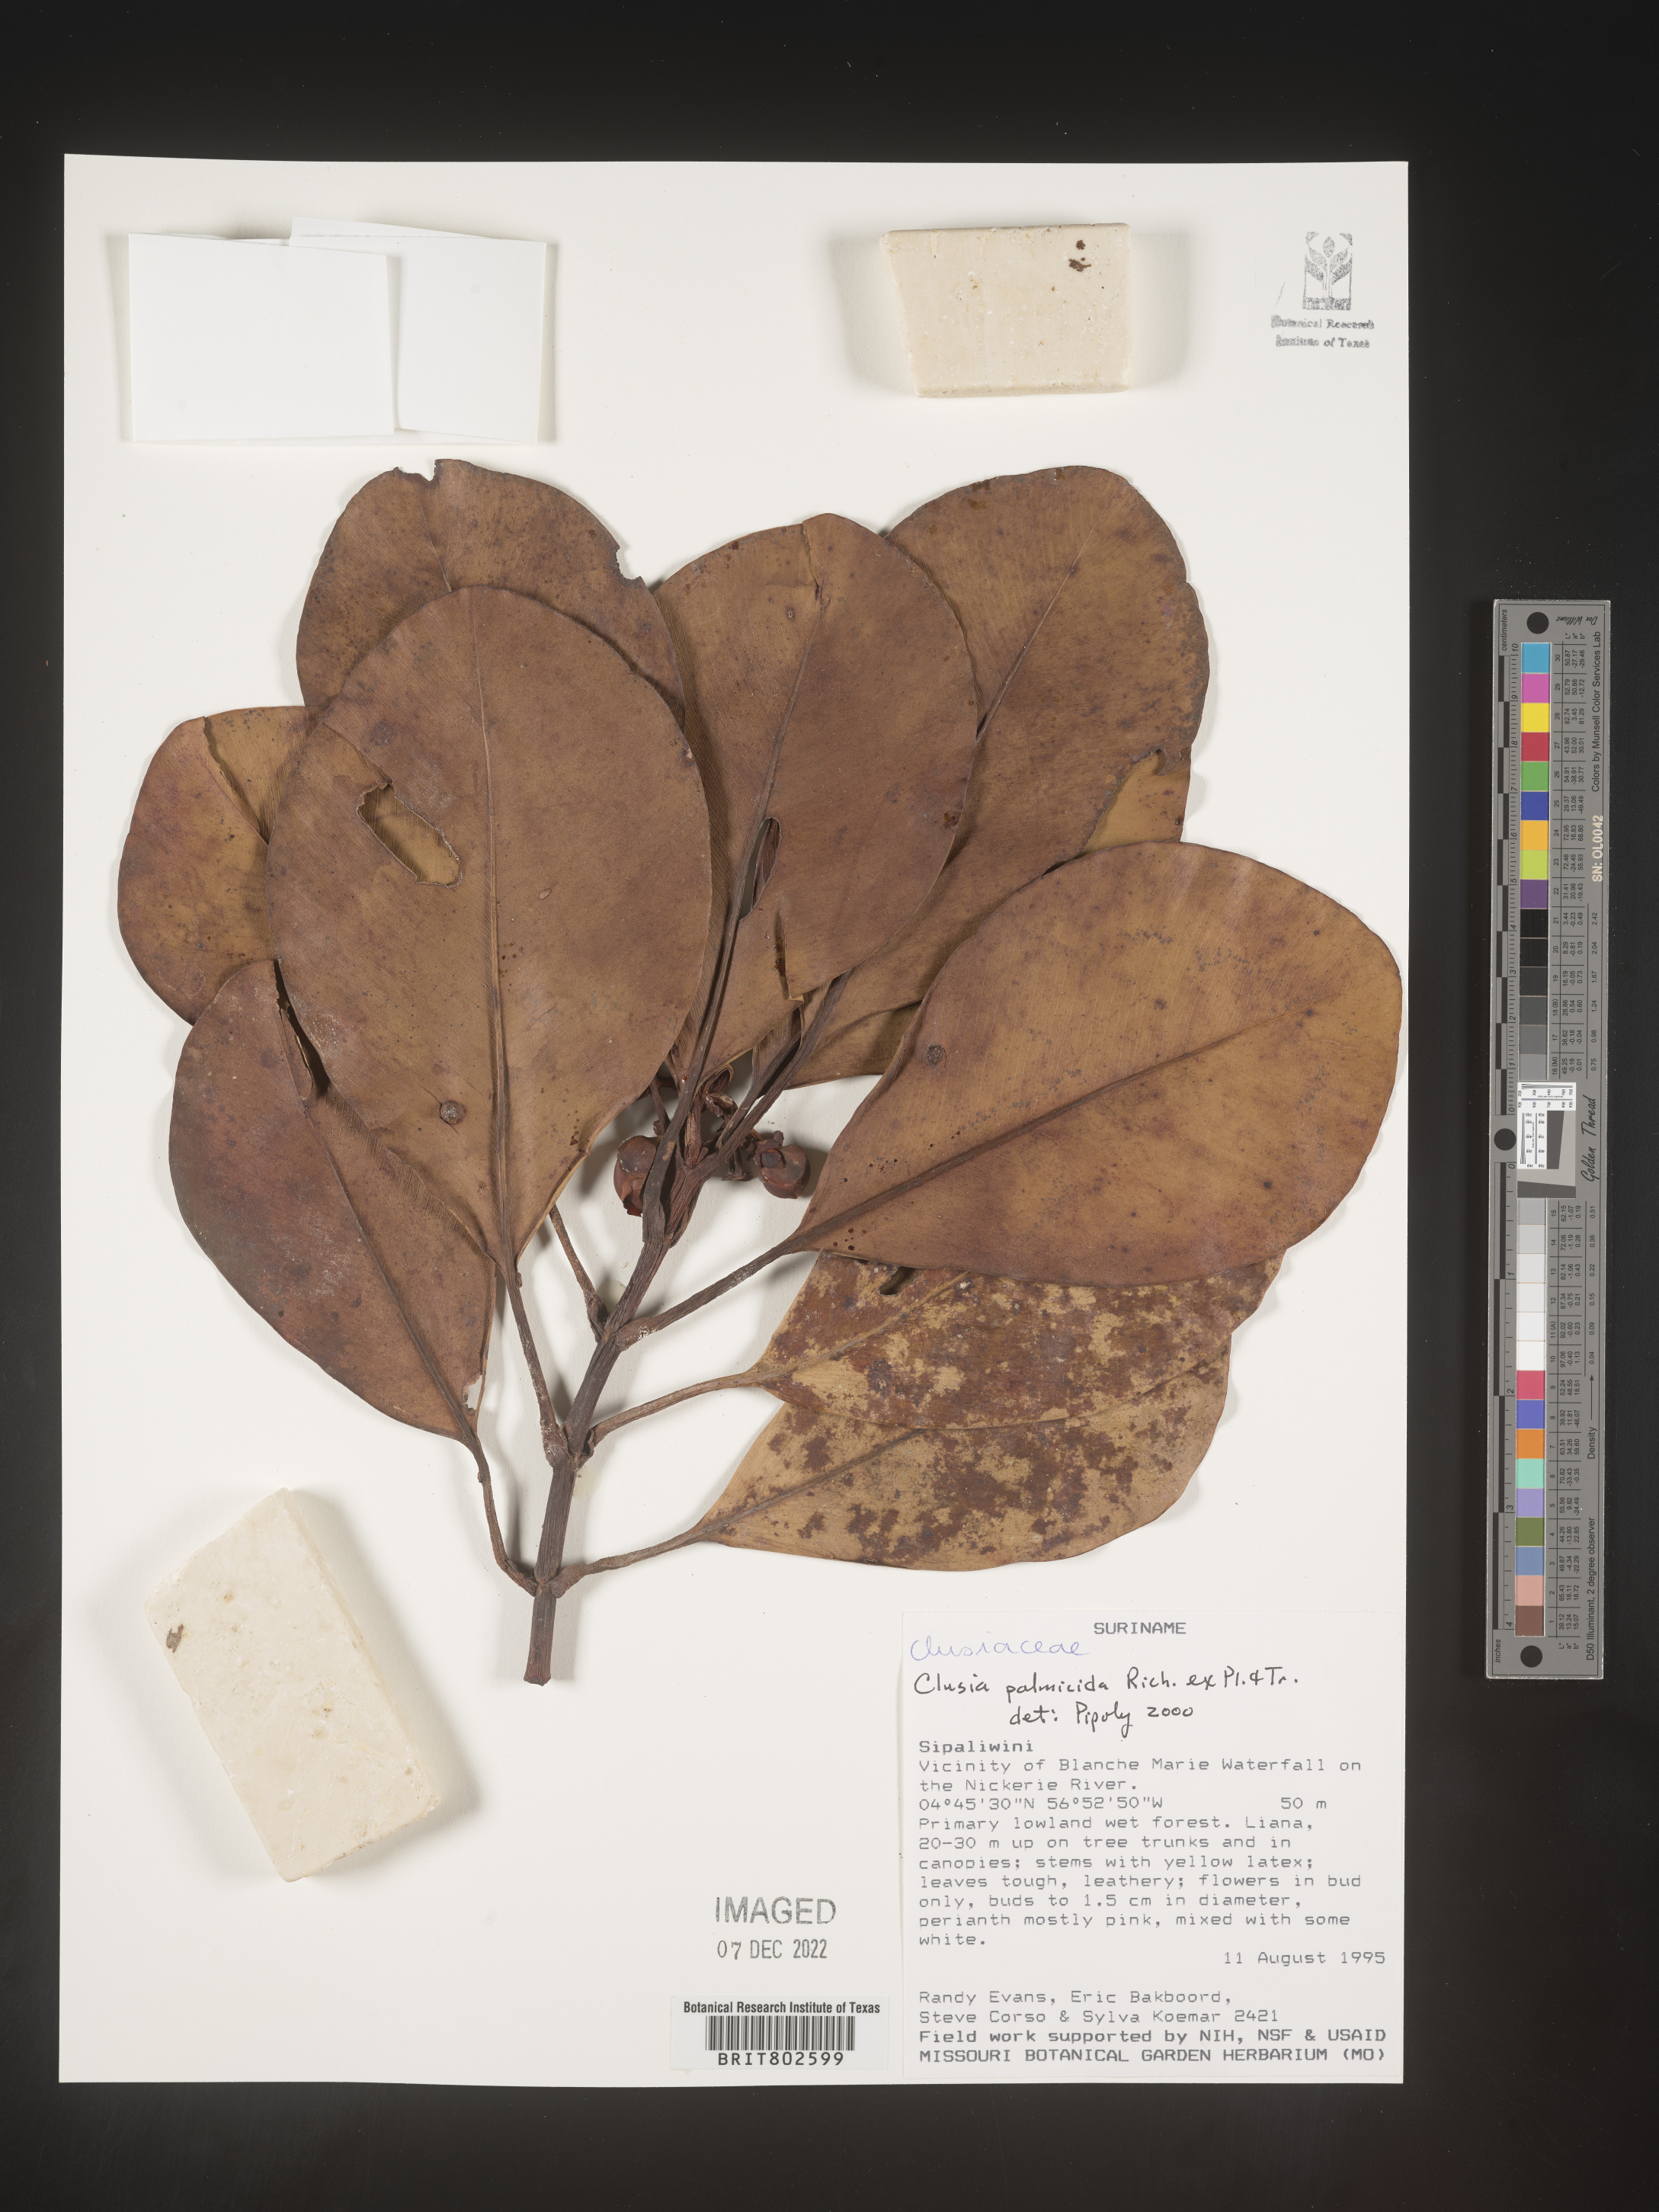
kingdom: Plantae
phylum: Tracheophyta
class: Magnoliopsida
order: Malpighiales
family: Clusiaceae
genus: Clusia
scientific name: Clusia pallida
